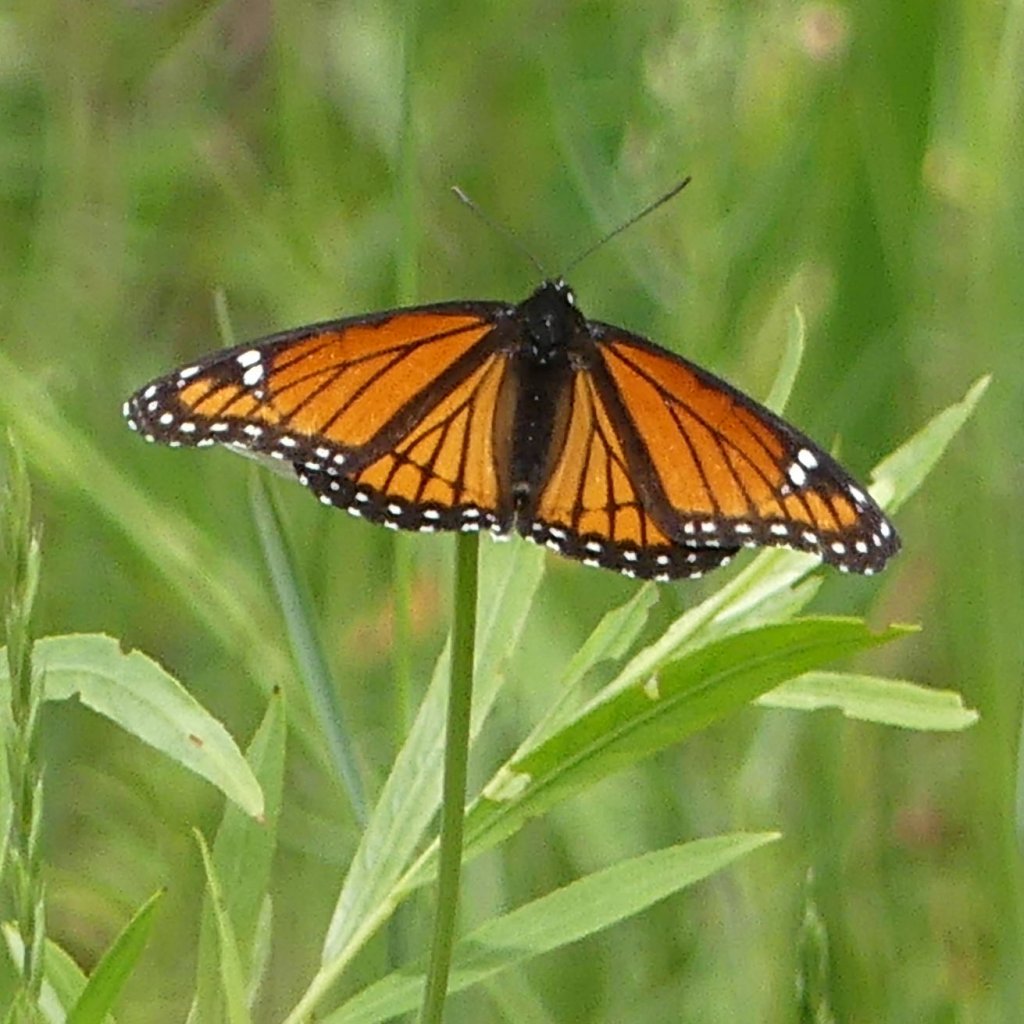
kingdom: Animalia
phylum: Arthropoda
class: Insecta
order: Lepidoptera
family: Nymphalidae
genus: Limenitis
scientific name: Limenitis archippus
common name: Viceroy
